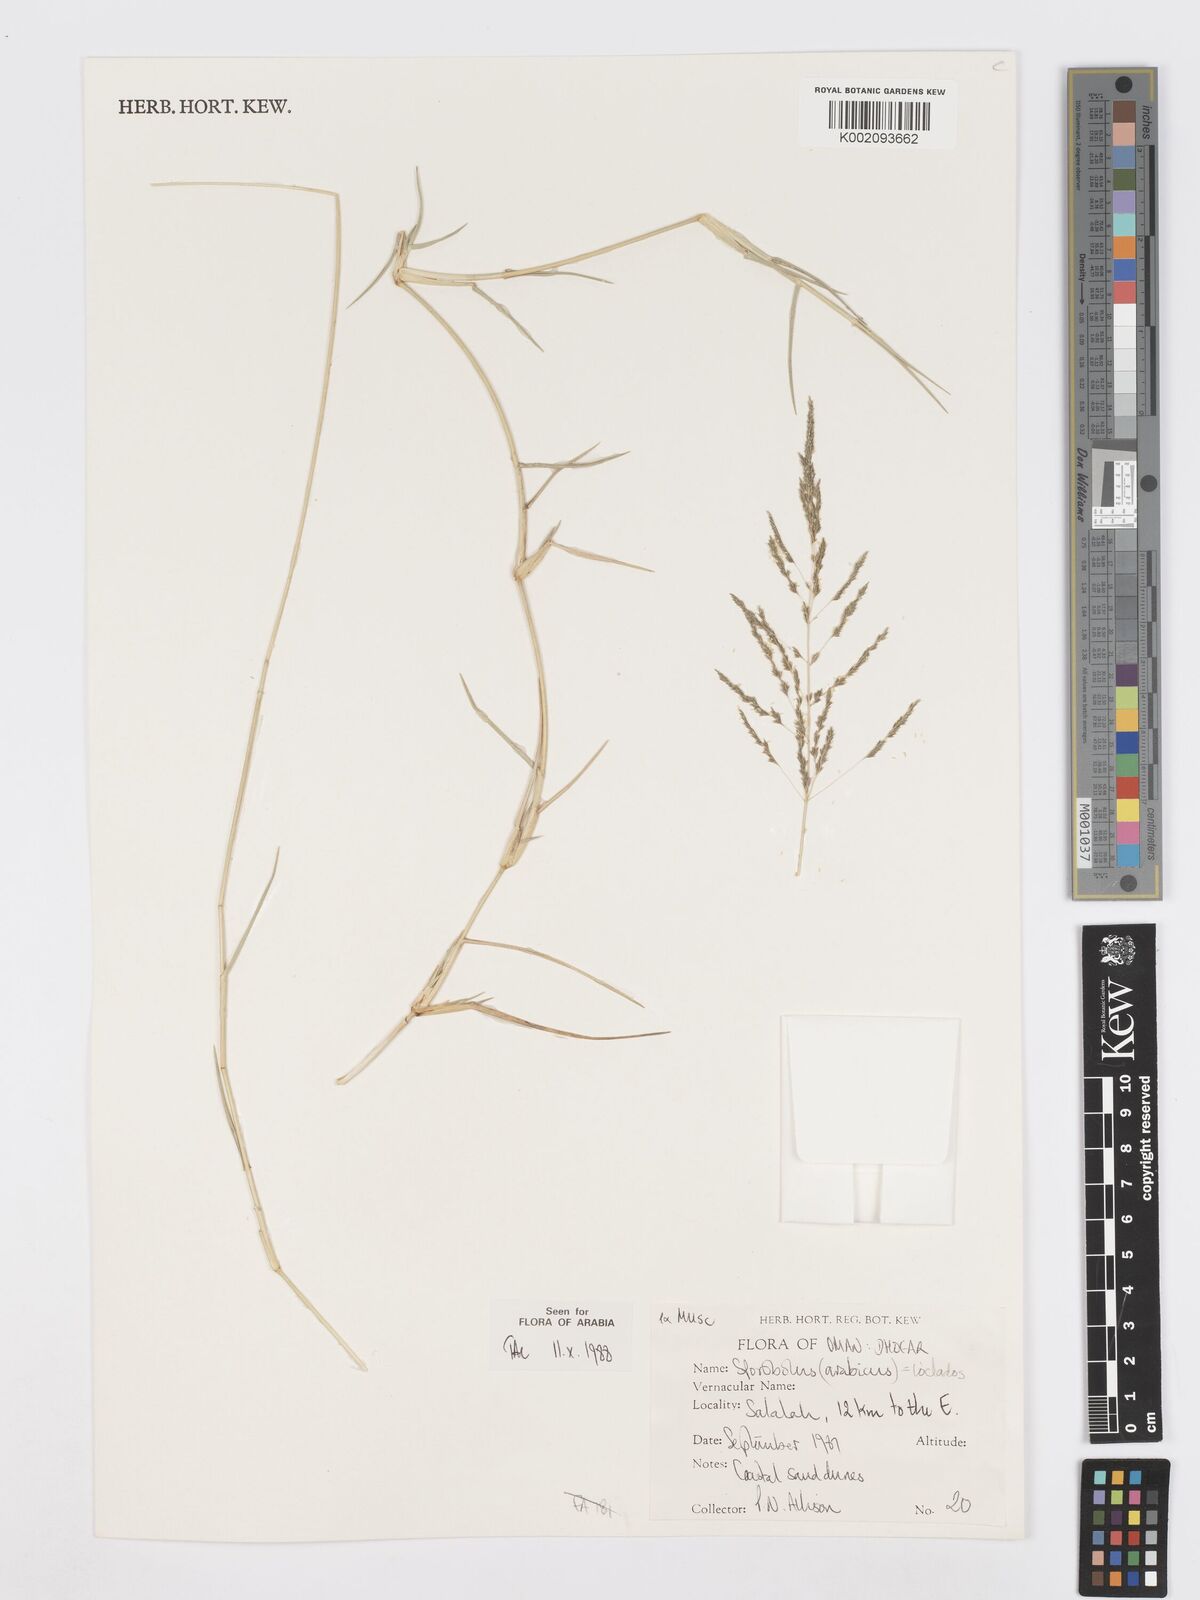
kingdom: Plantae
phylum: Tracheophyta
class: Liliopsida
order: Poales
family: Poaceae
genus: Sporobolus
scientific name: Sporobolus ioclados
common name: Pan dropseed
